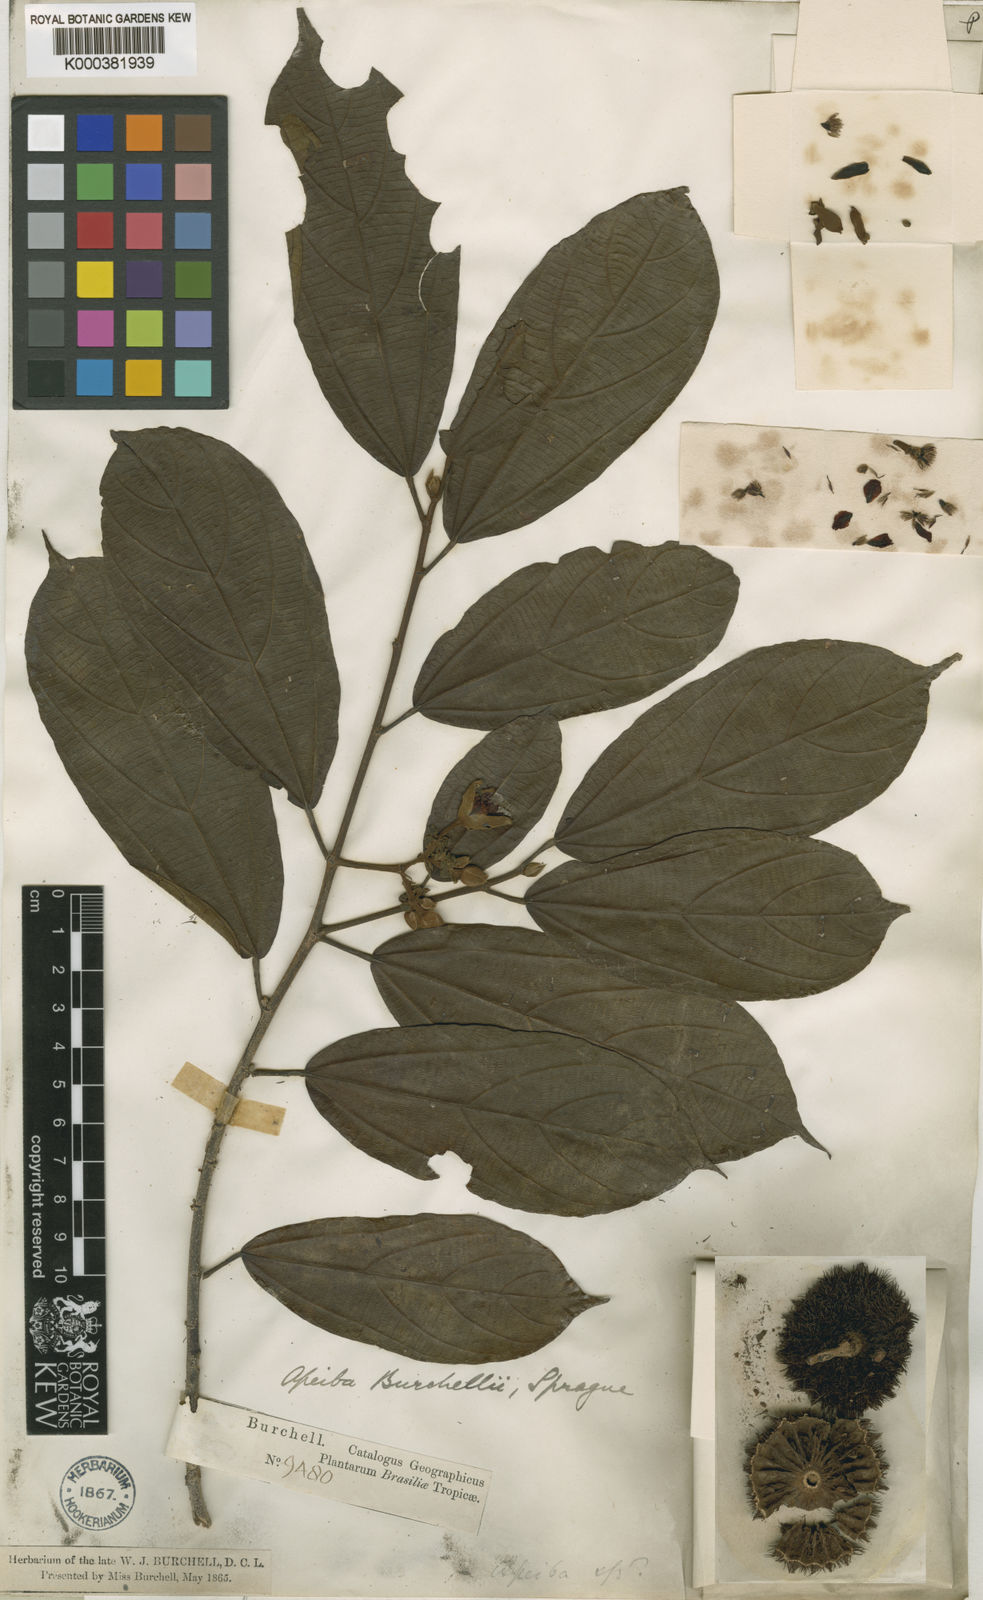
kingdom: Plantae
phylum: Tracheophyta
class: Magnoliopsida
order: Malvales
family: Malvaceae
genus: Apeiba
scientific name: Apeiba glabra
